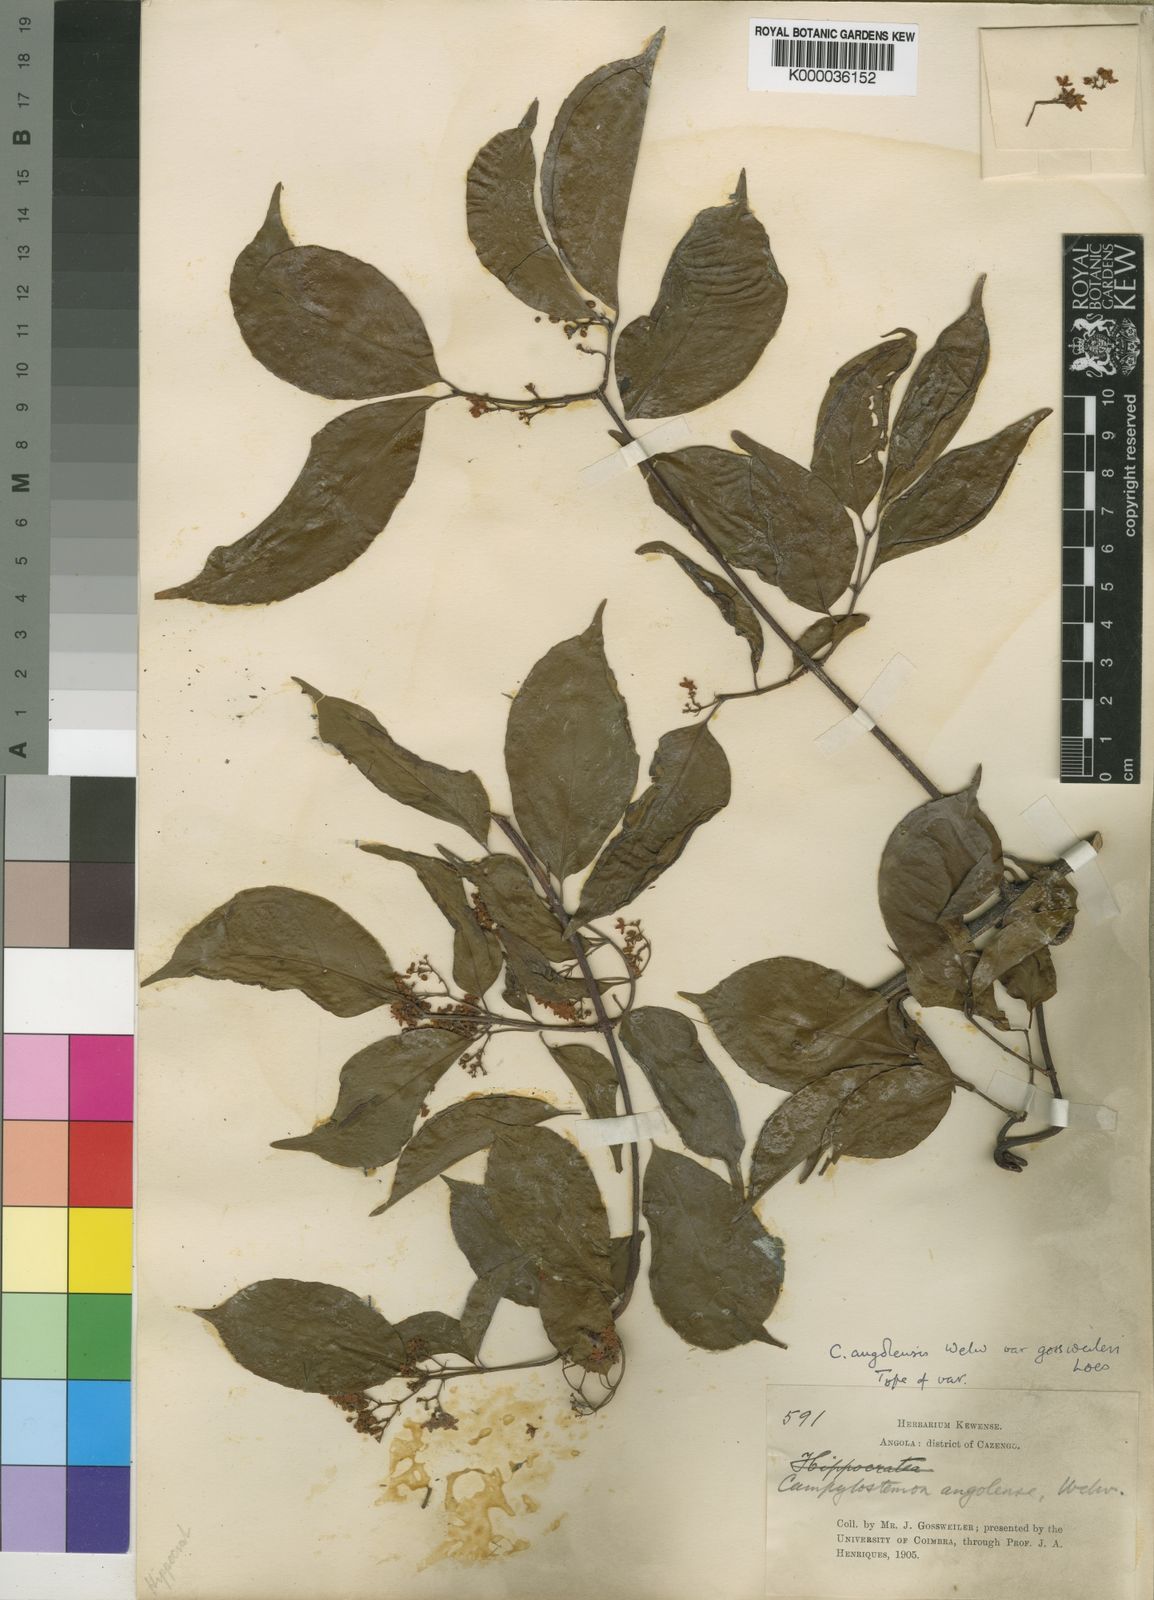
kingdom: Plantae
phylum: Tracheophyta
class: Magnoliopsida
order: Celastrales
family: Celastraceae
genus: Campylostemon
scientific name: Campylostemon
